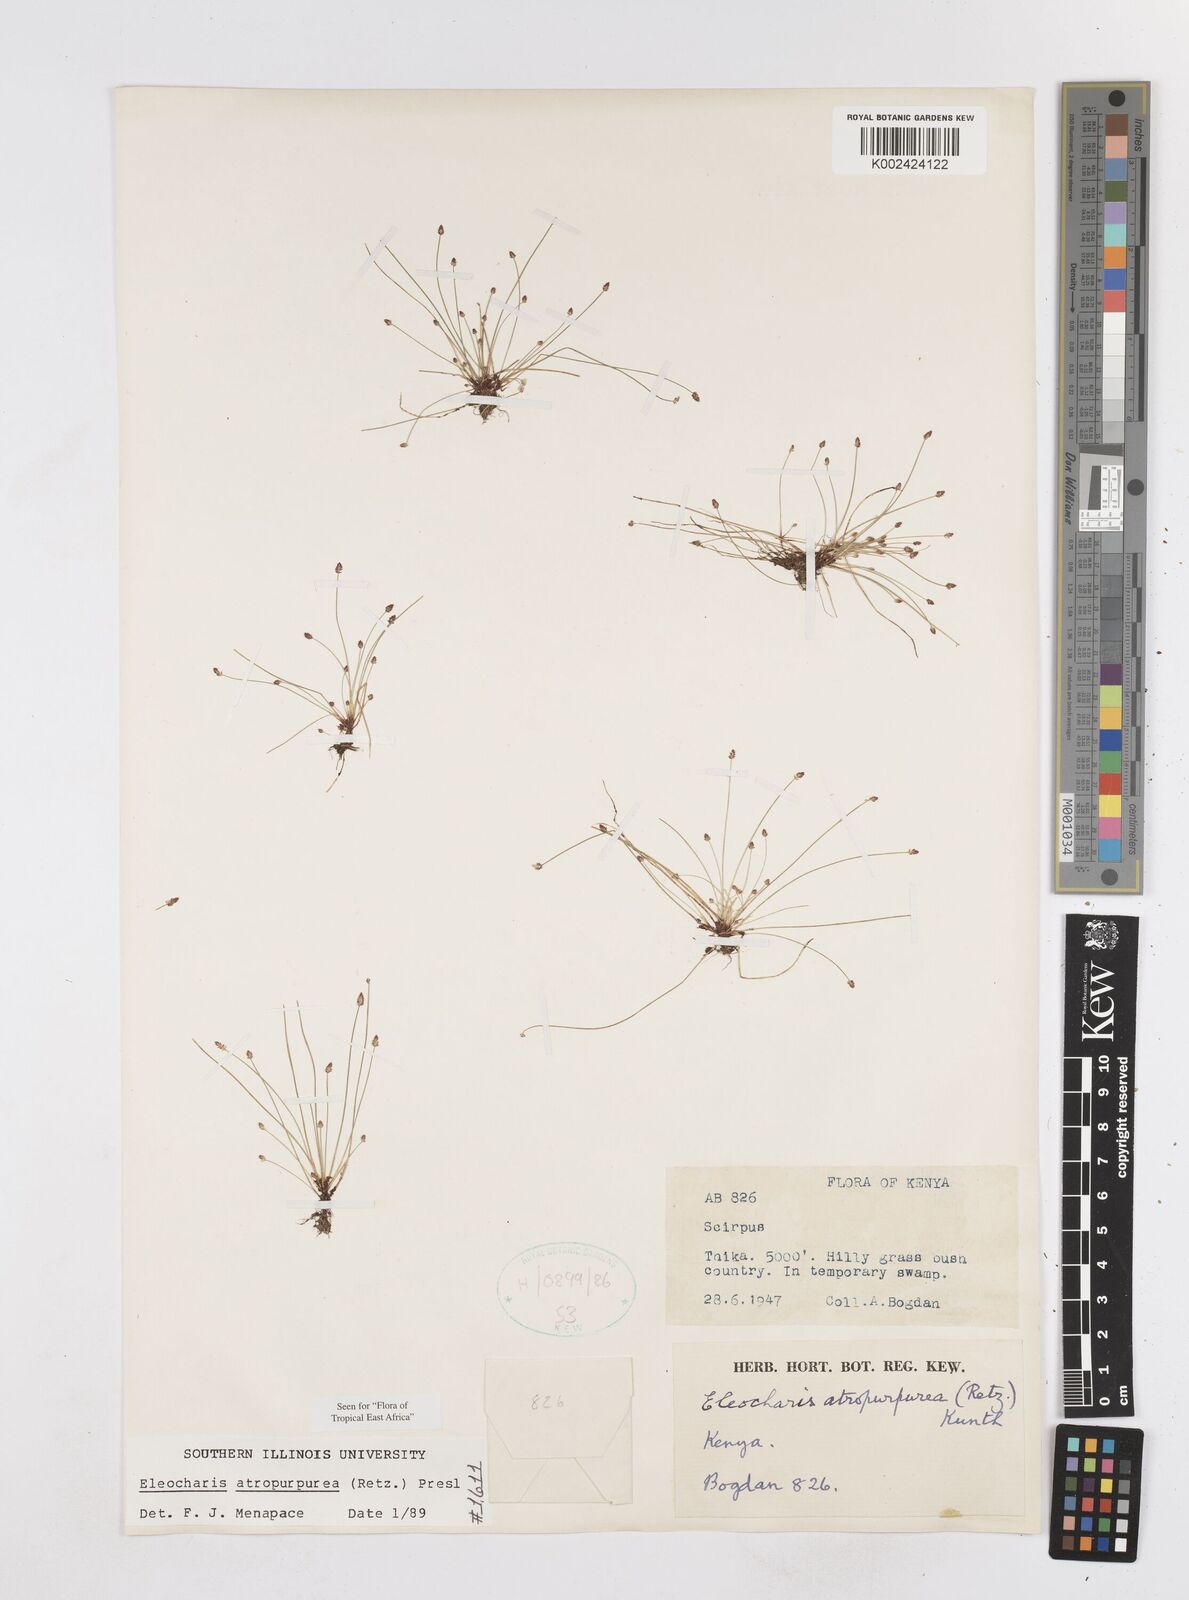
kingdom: Plantae
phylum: Tracheophyta
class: Liliopsida
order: Poales
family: Cyperaceae
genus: Eleocharis
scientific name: Eleocharis atropurpurea
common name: Purple spikerush
